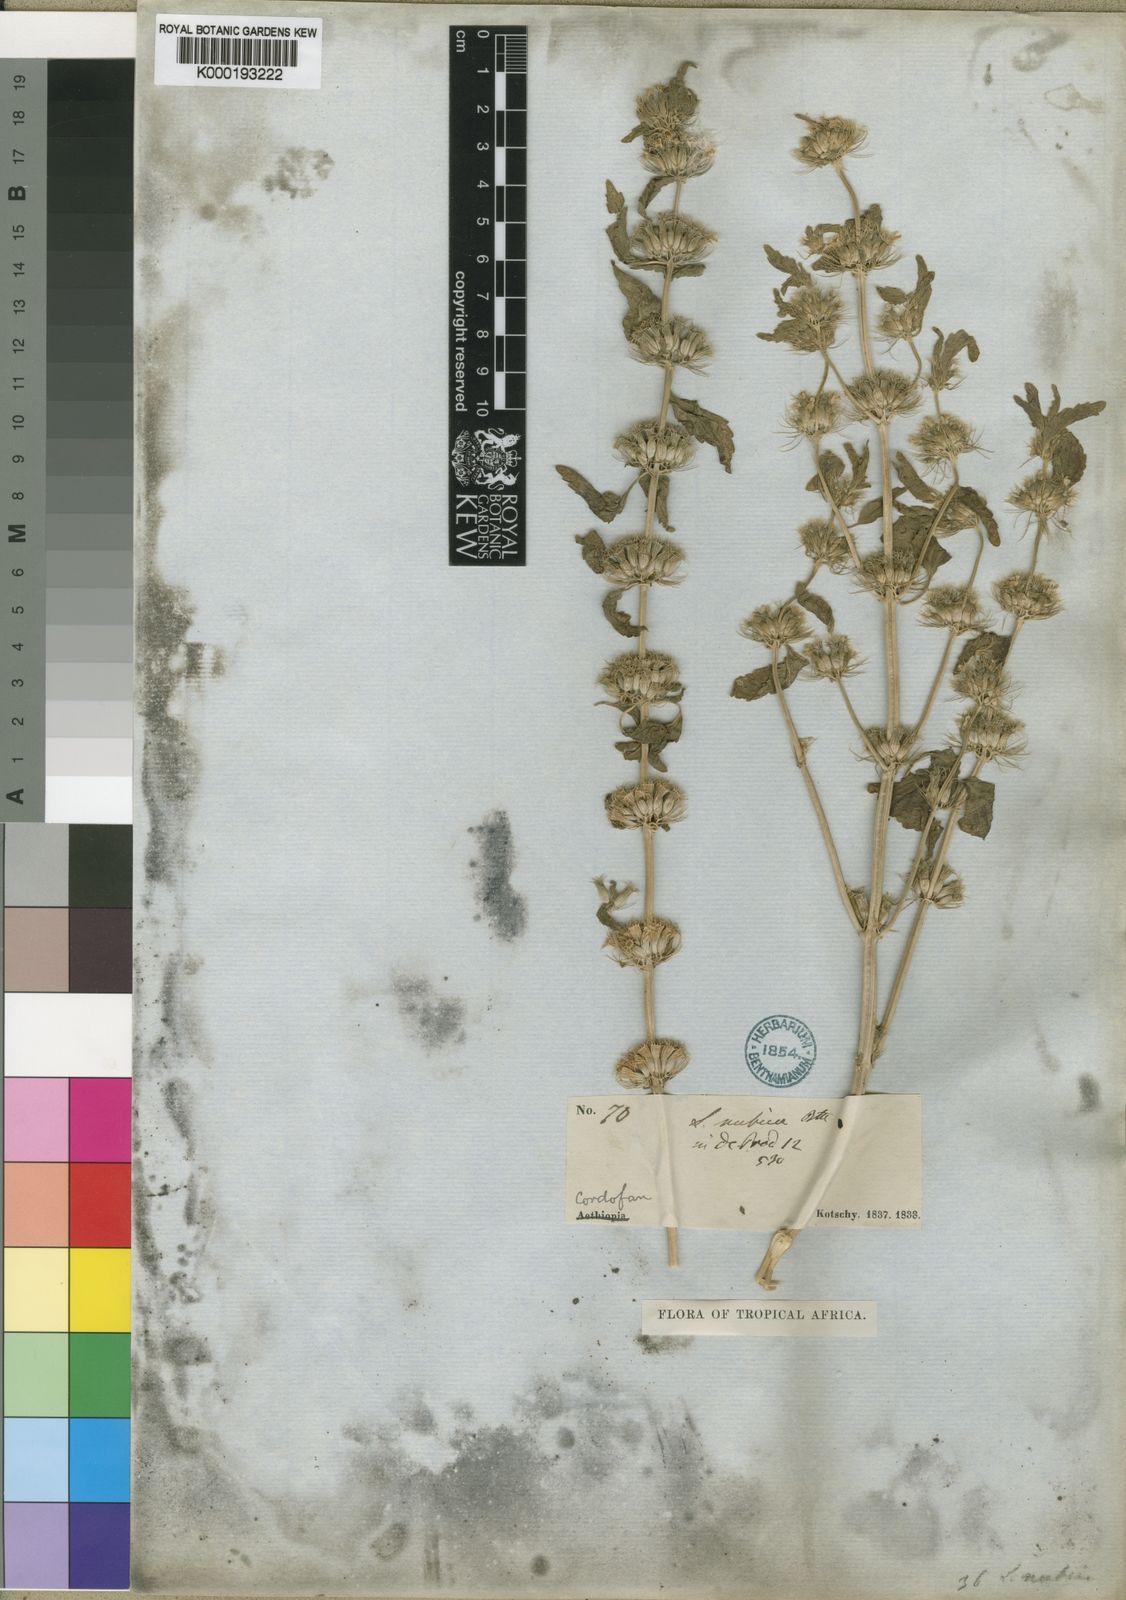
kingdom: Plantae
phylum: Tracheophyta
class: Magnoliopsida
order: Lamiales
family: Lamiaceae
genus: Leucas
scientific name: Leucas nubica
